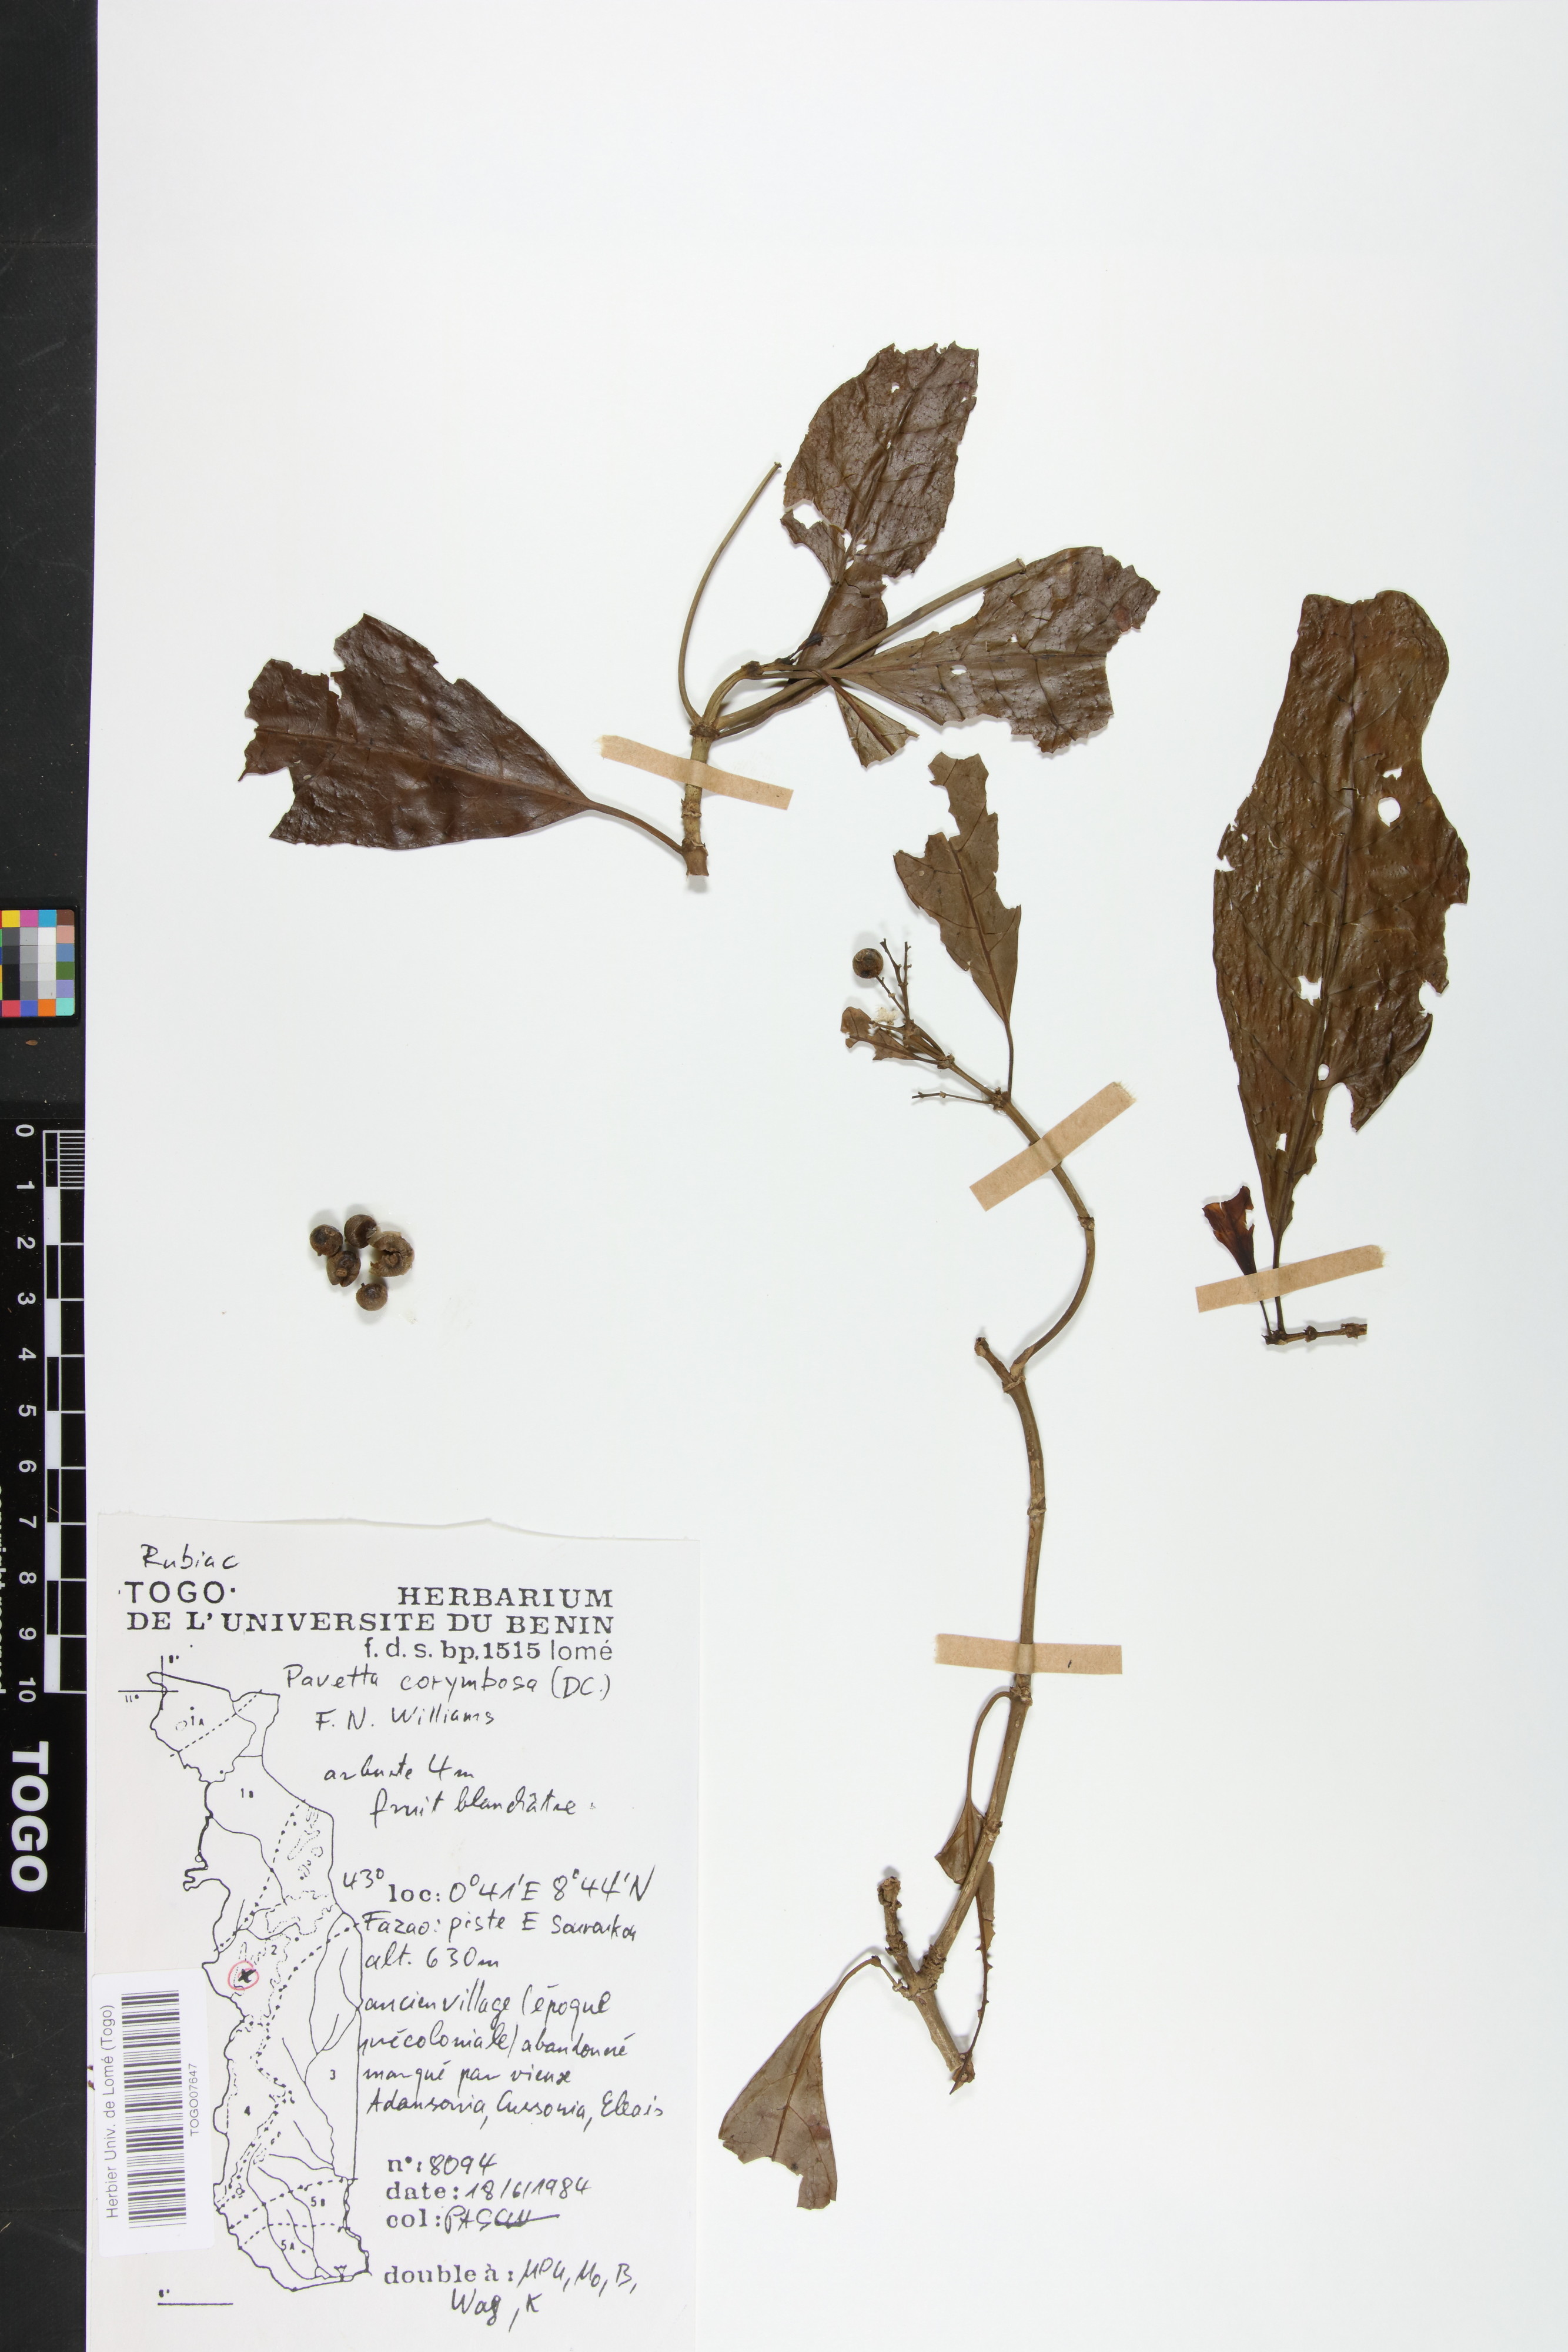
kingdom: Plantae
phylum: Tracheophyta
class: Magnoliopsida
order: Gentianales
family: Rubiaceae
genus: Pavetta
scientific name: Pavetta corymbosa
